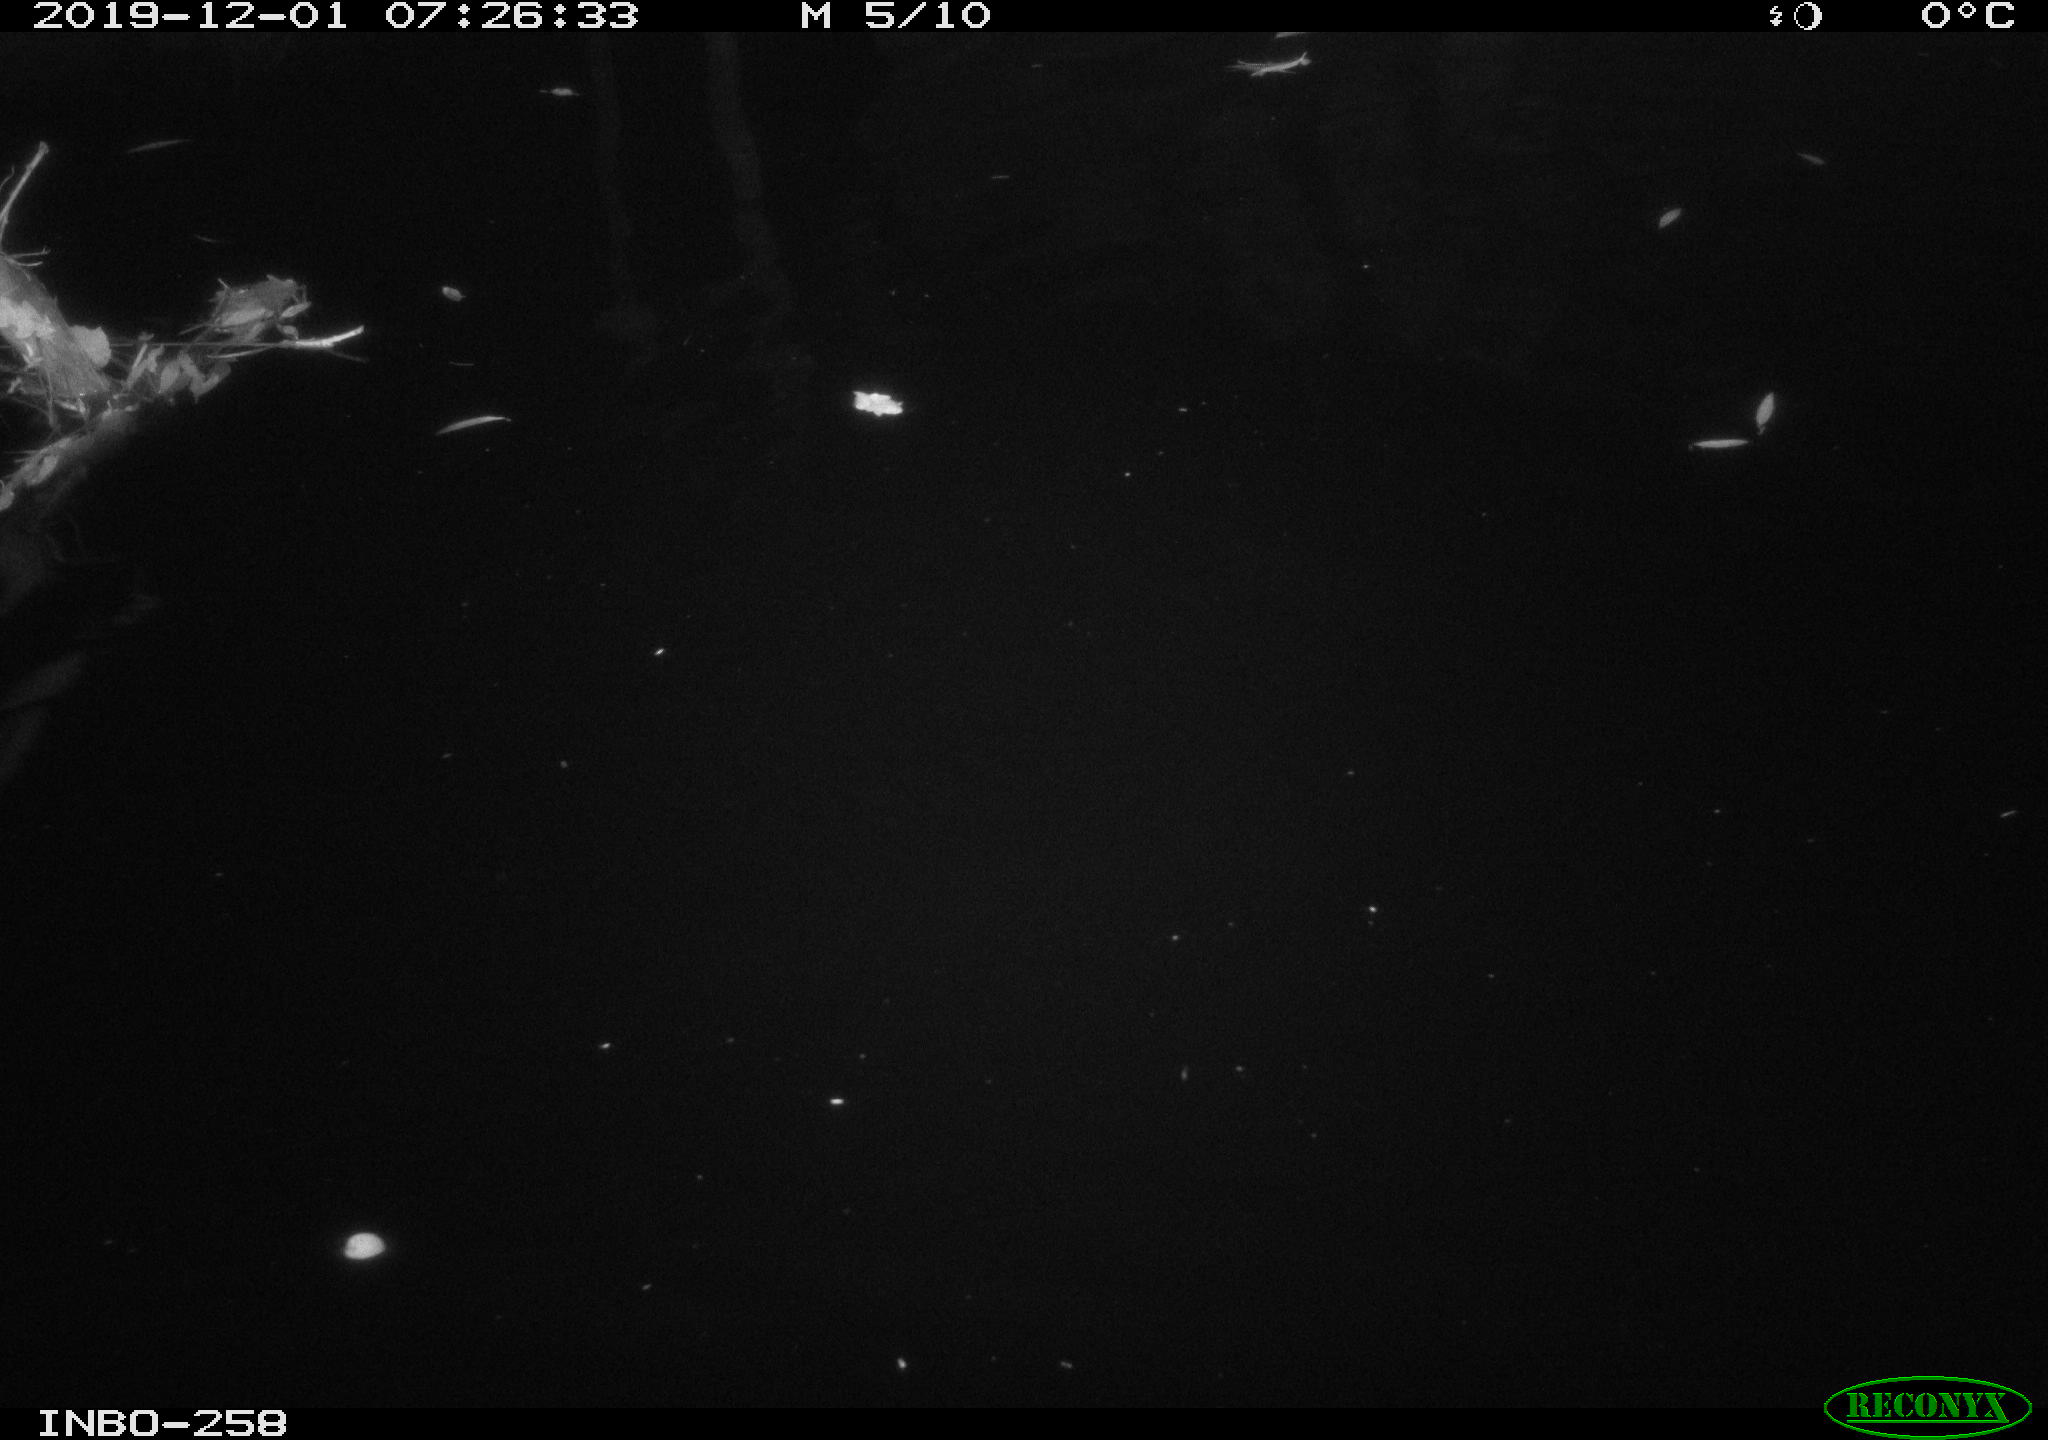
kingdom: Animalia
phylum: Chordata
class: Aves
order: Anseriformes
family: Anatidae
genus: Anas
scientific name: Anas platyrhynchos
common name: Mallard
